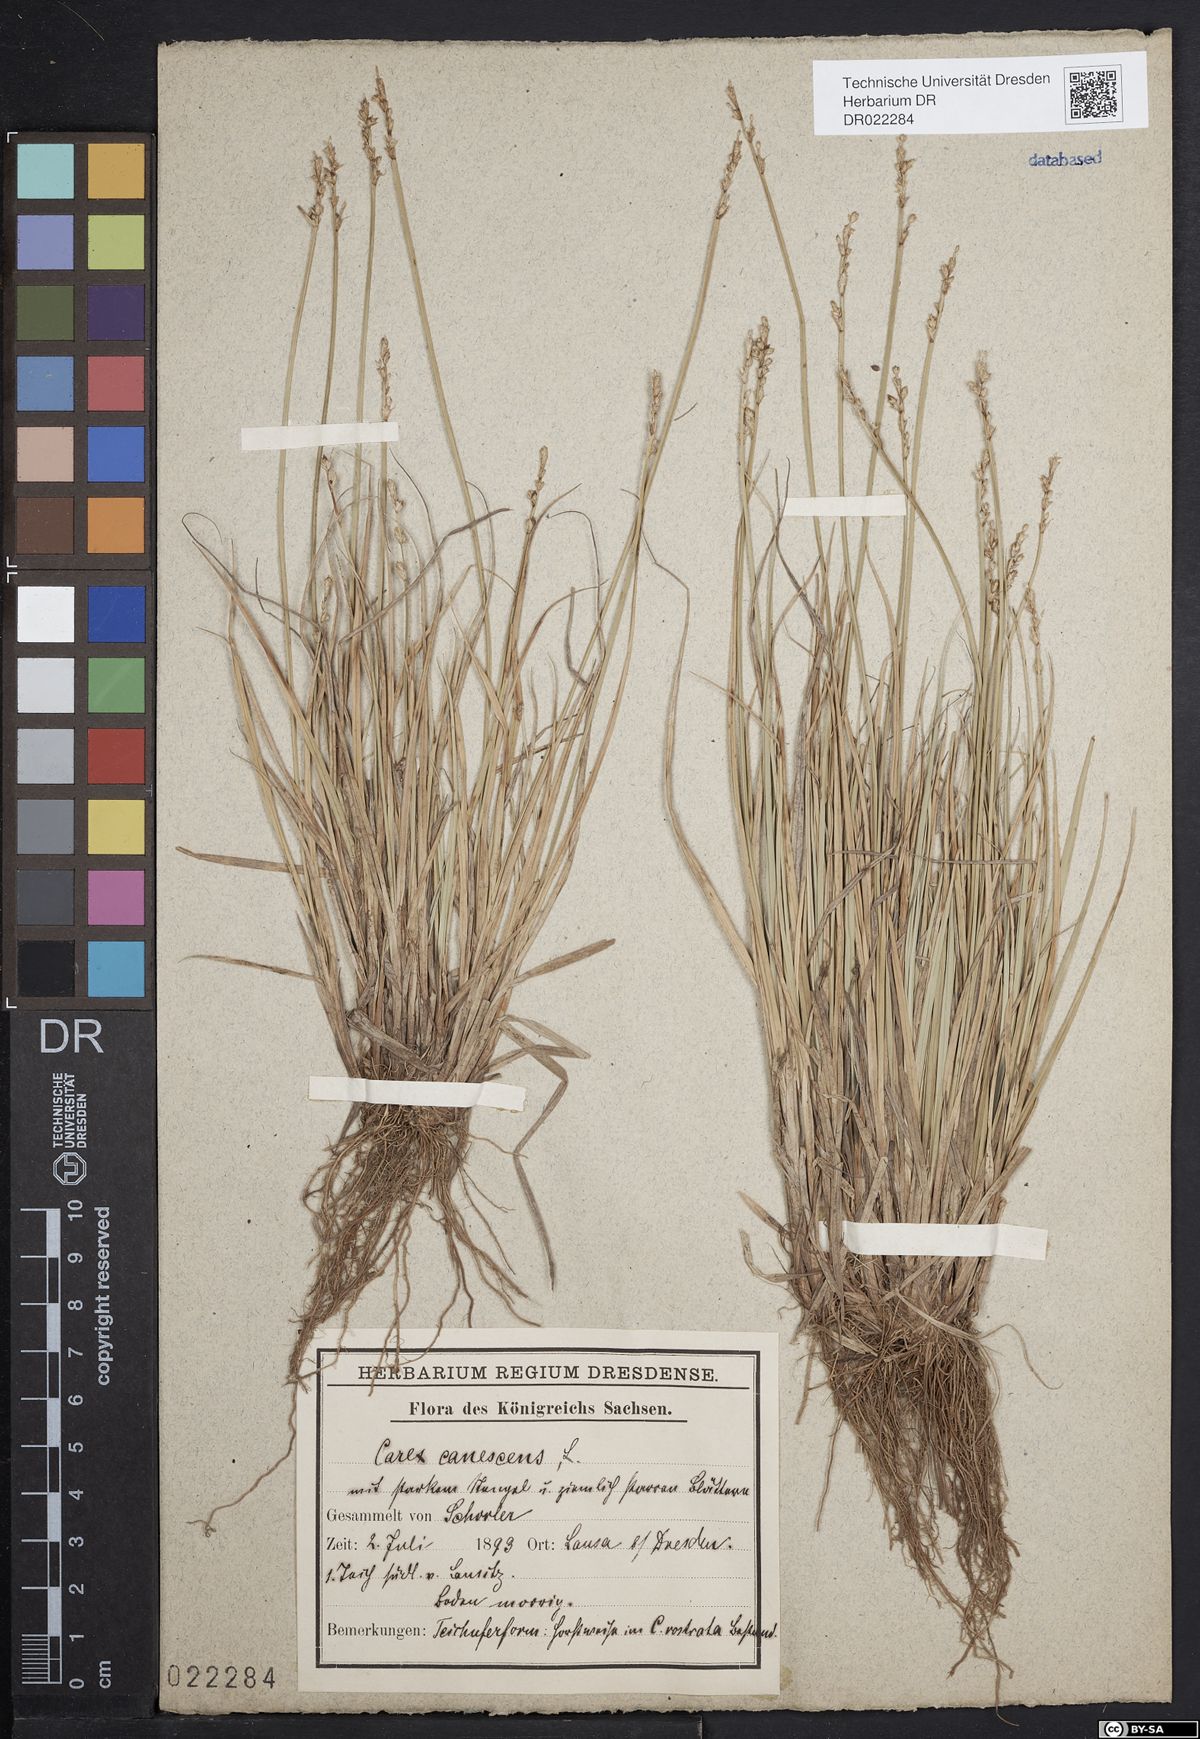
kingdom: Plantae
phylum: Tracheophyta
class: Liliopsida
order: Poales
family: Cyperaceae
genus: Carex
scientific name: Carex canescens
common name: White sedge
